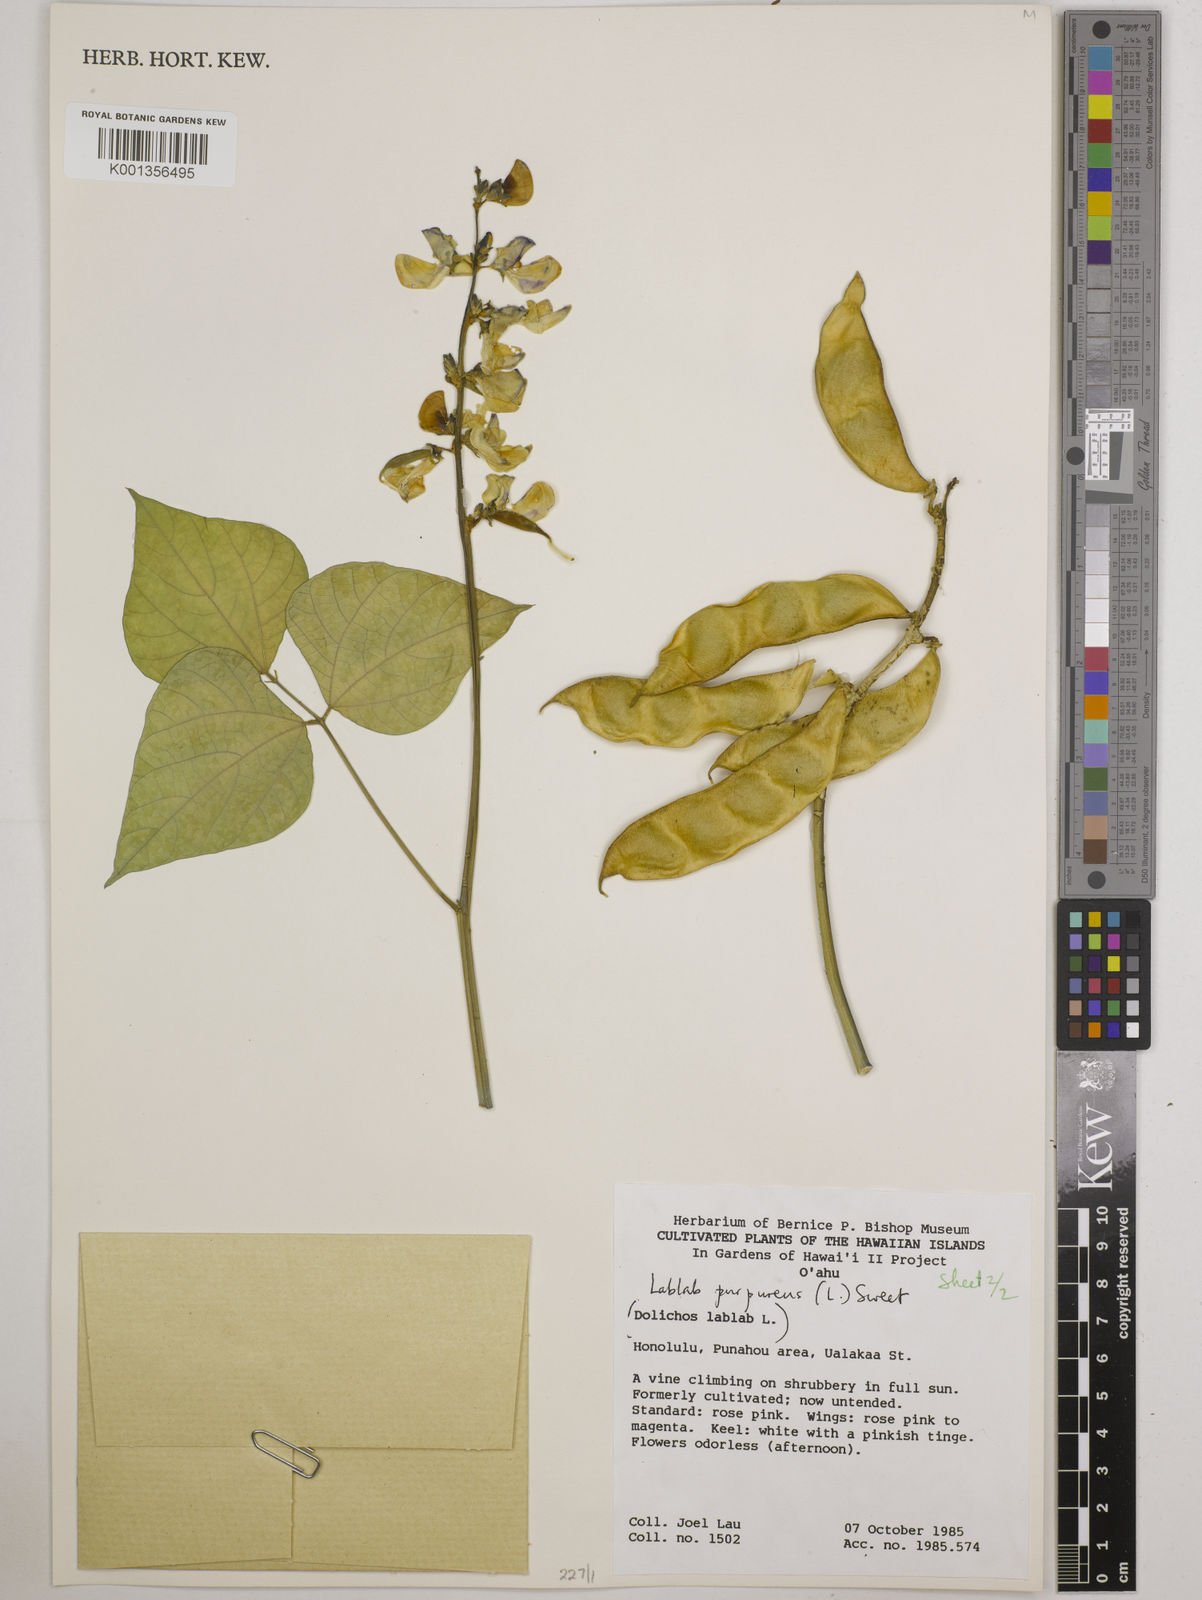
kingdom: Plantae
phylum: Tracheophyta
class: Magnoliopsida
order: Fabales
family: Fabaceae
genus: Lablab
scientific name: Lablab purpureus
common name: Lablab-bean
